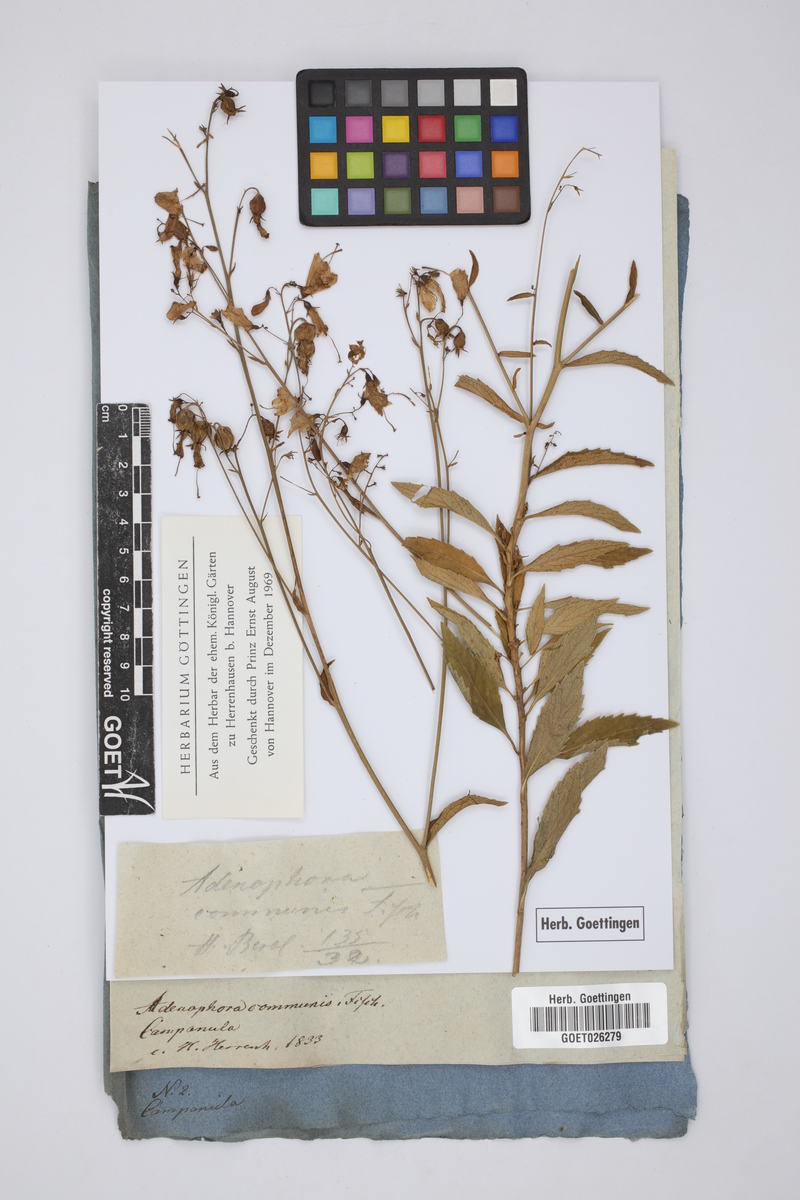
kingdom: Plantae
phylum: Tracheophyta
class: Magnoliopsida
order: Asterales
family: Campanulaceae
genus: Adenophora
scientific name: Adenophora liliifolia
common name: Lilyleaf ladybells
